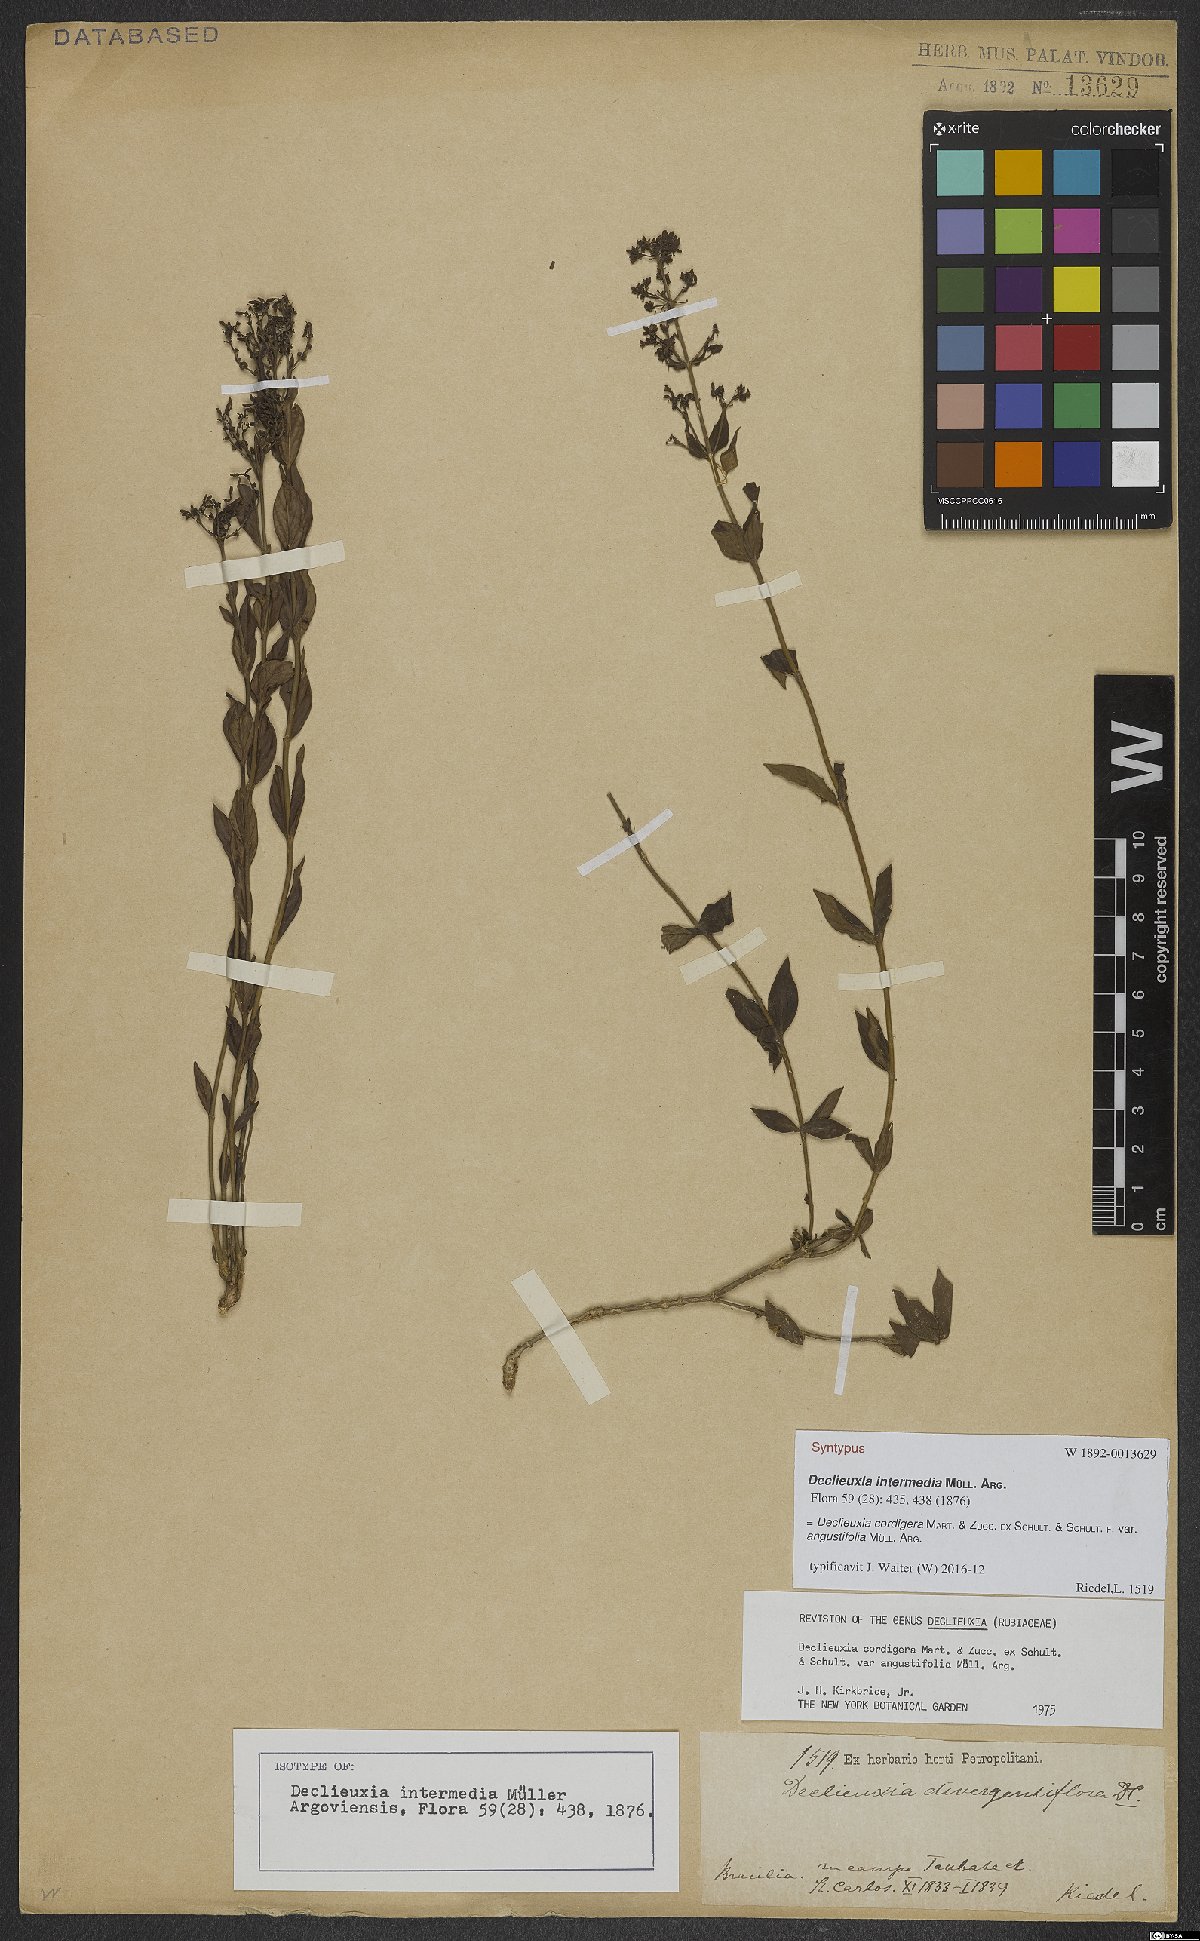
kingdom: Plantae
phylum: Tracheophyta
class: Magnoliopsida
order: Gentianales
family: Rubiaceae
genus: Declieuxia
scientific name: Declieuxia cordigera
